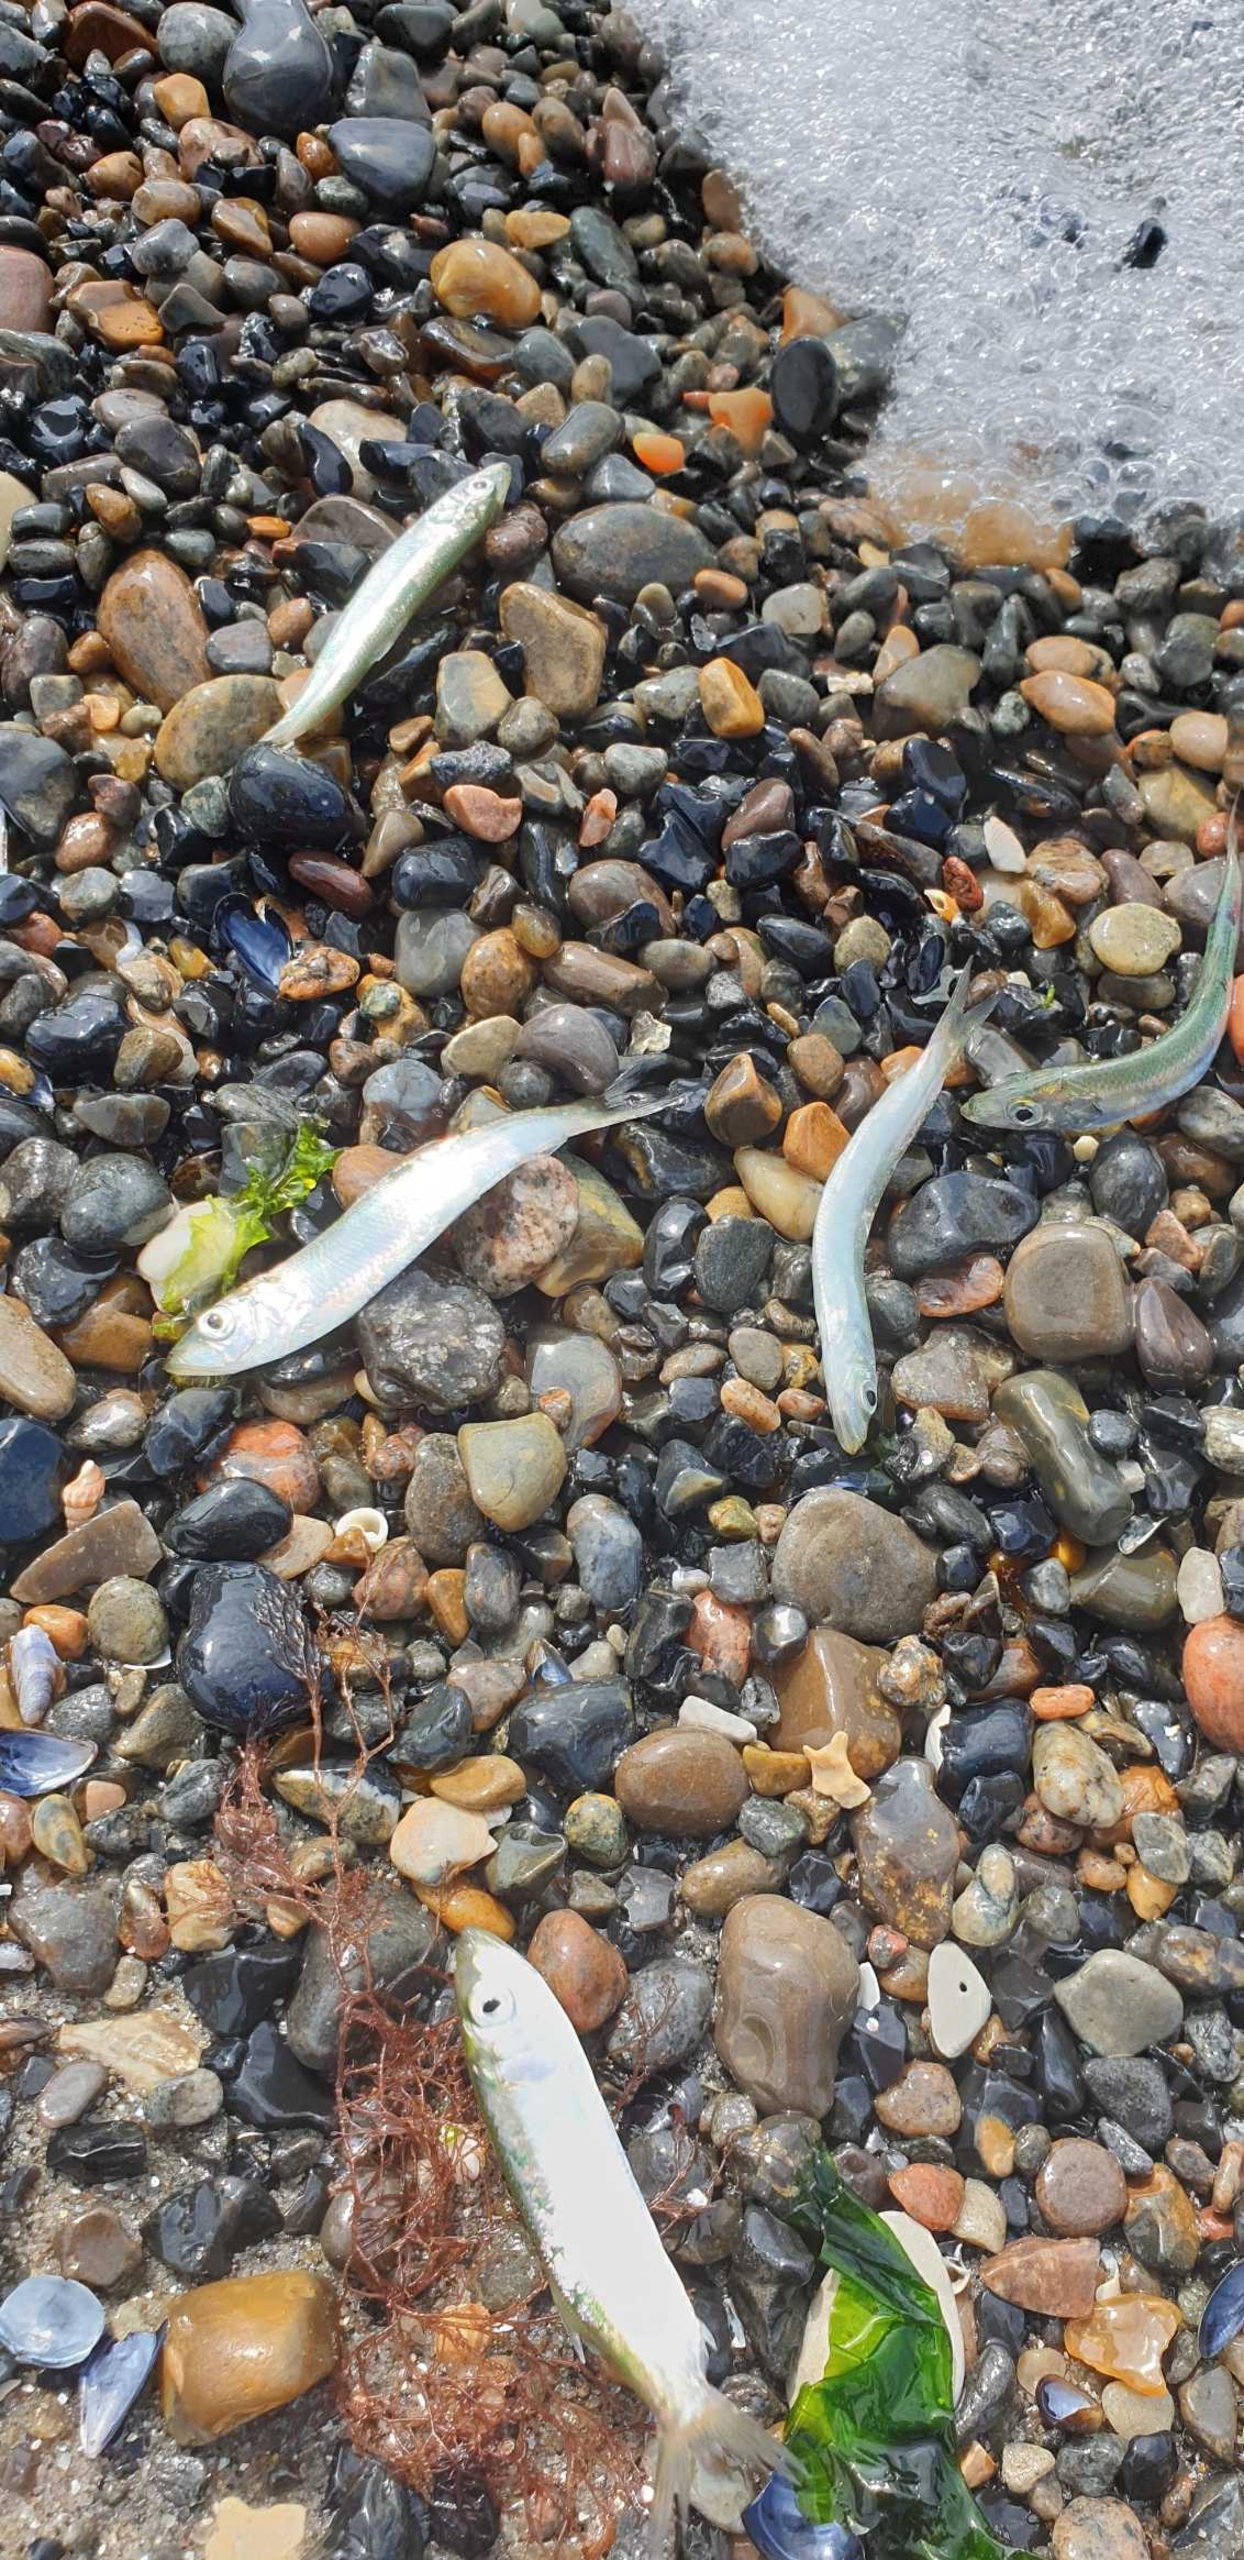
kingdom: Animalia
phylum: Chordata
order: Clupeiformes
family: Clupeidae
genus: Clupea
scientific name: Clupea harengus
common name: Sild
